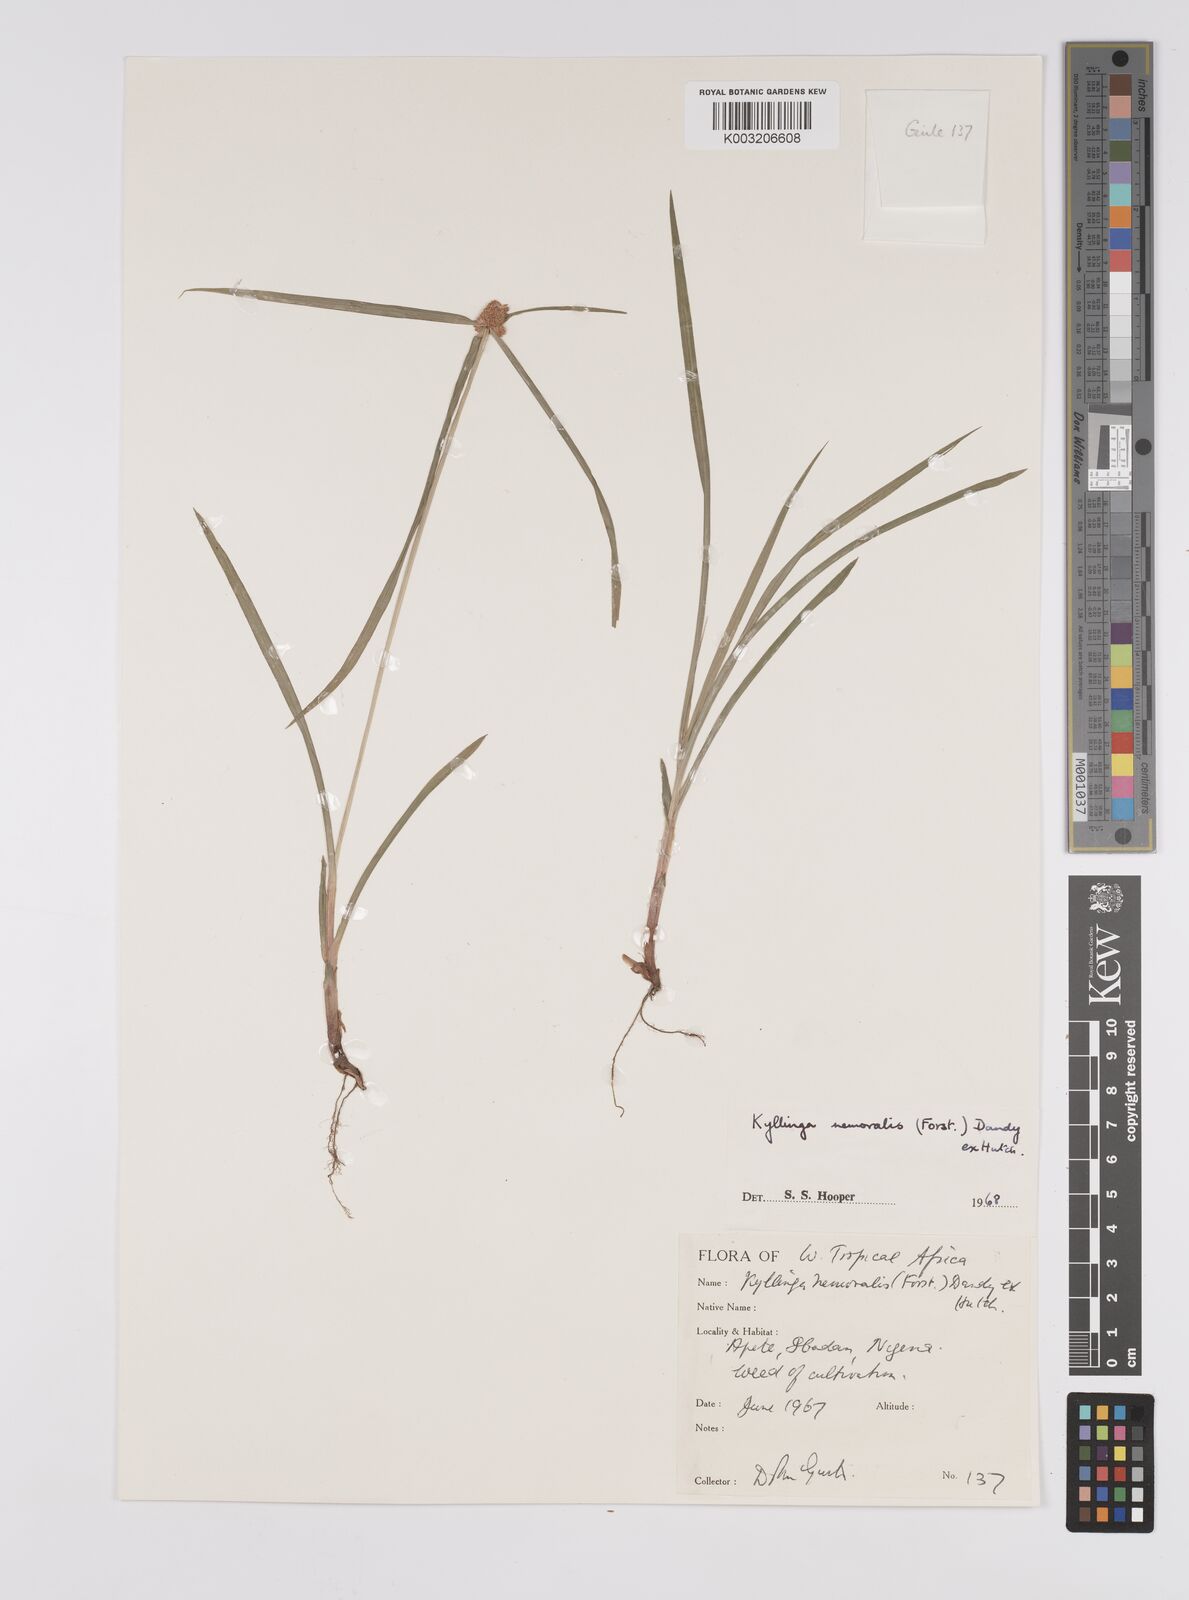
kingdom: Plantae
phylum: Tracheophyta
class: Liliopsida
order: Poales
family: Cyperaceae
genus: Cyperus
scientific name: Cyperus nemoralis
